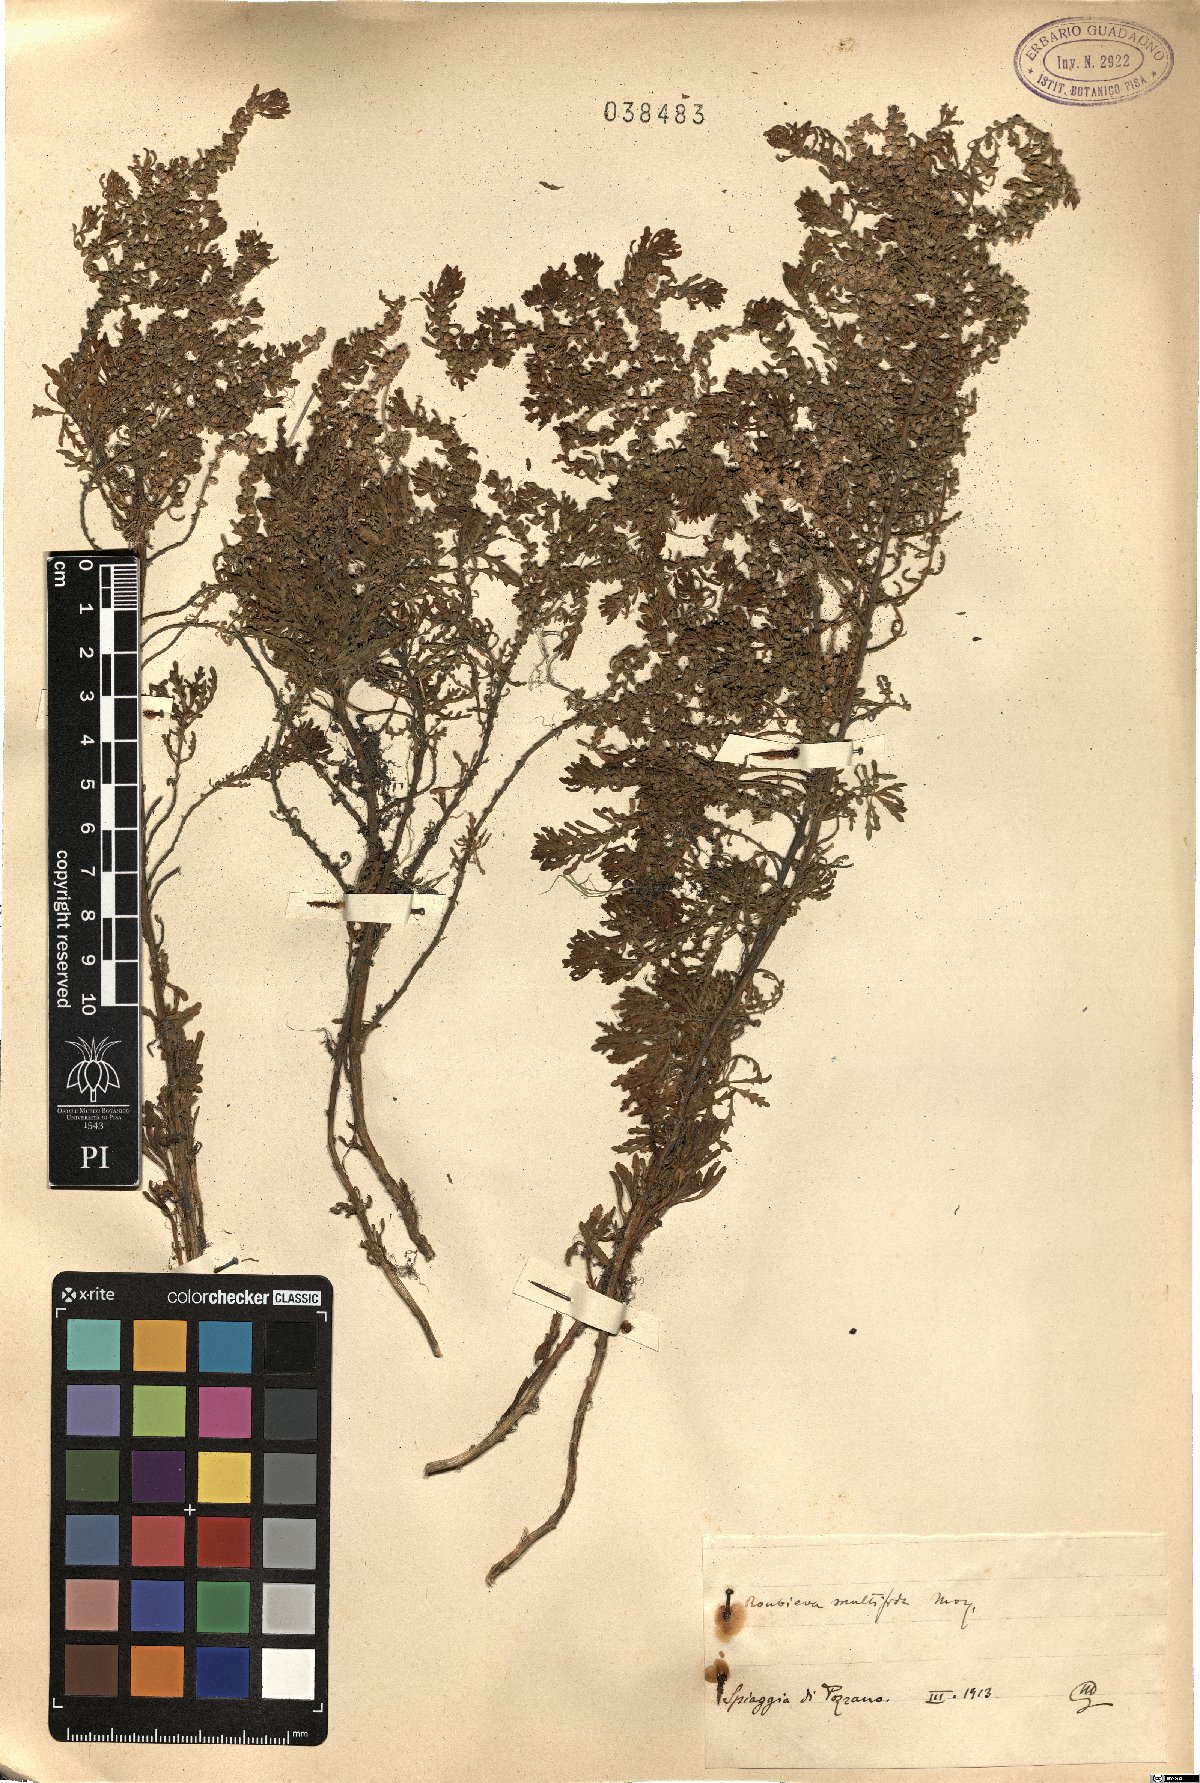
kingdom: Plantae
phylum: Tracheophyta
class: Magnoliopsida
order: Caryophyllales
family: Amaranthaceae
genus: Dysphania
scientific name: Dysphania multifida
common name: Cutleaf goosefoot
